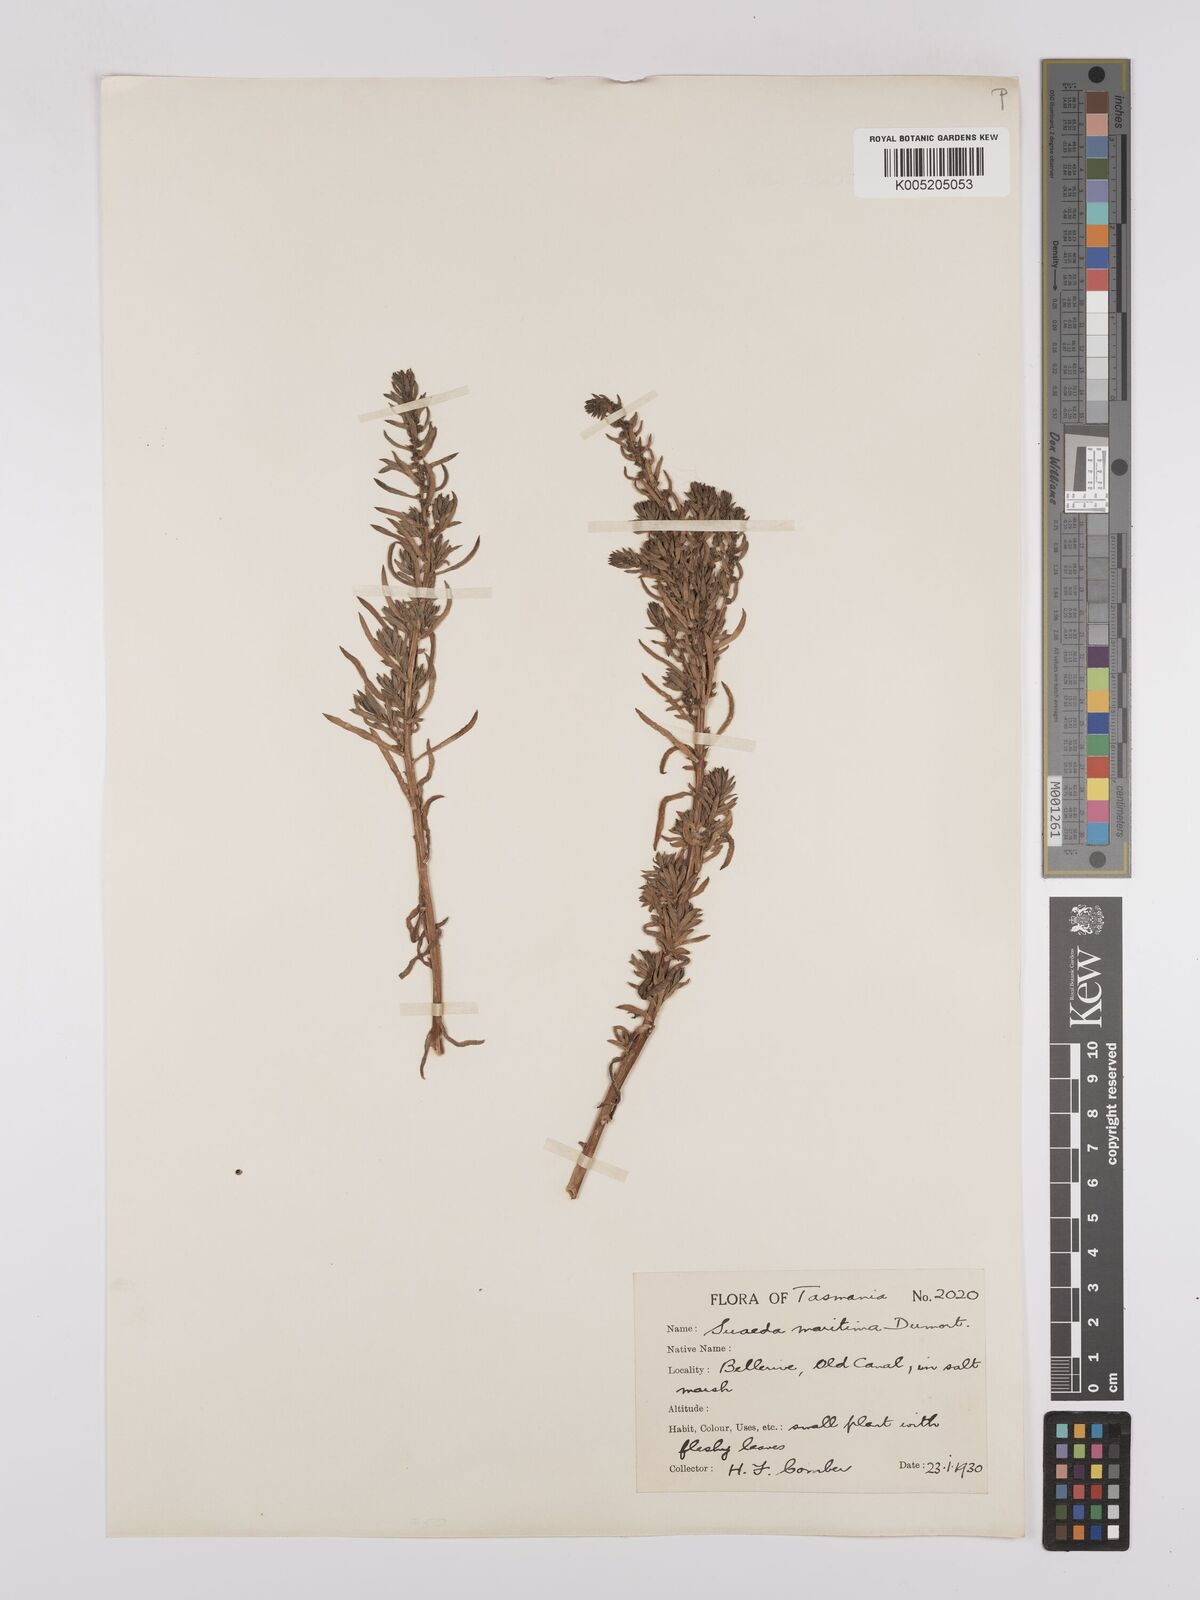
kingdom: Plantae
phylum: Tracheophyta
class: Magnoliopsida
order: Caryophyllales
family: Amaranthaceae
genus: Suaeda
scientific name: Suaeda australis
